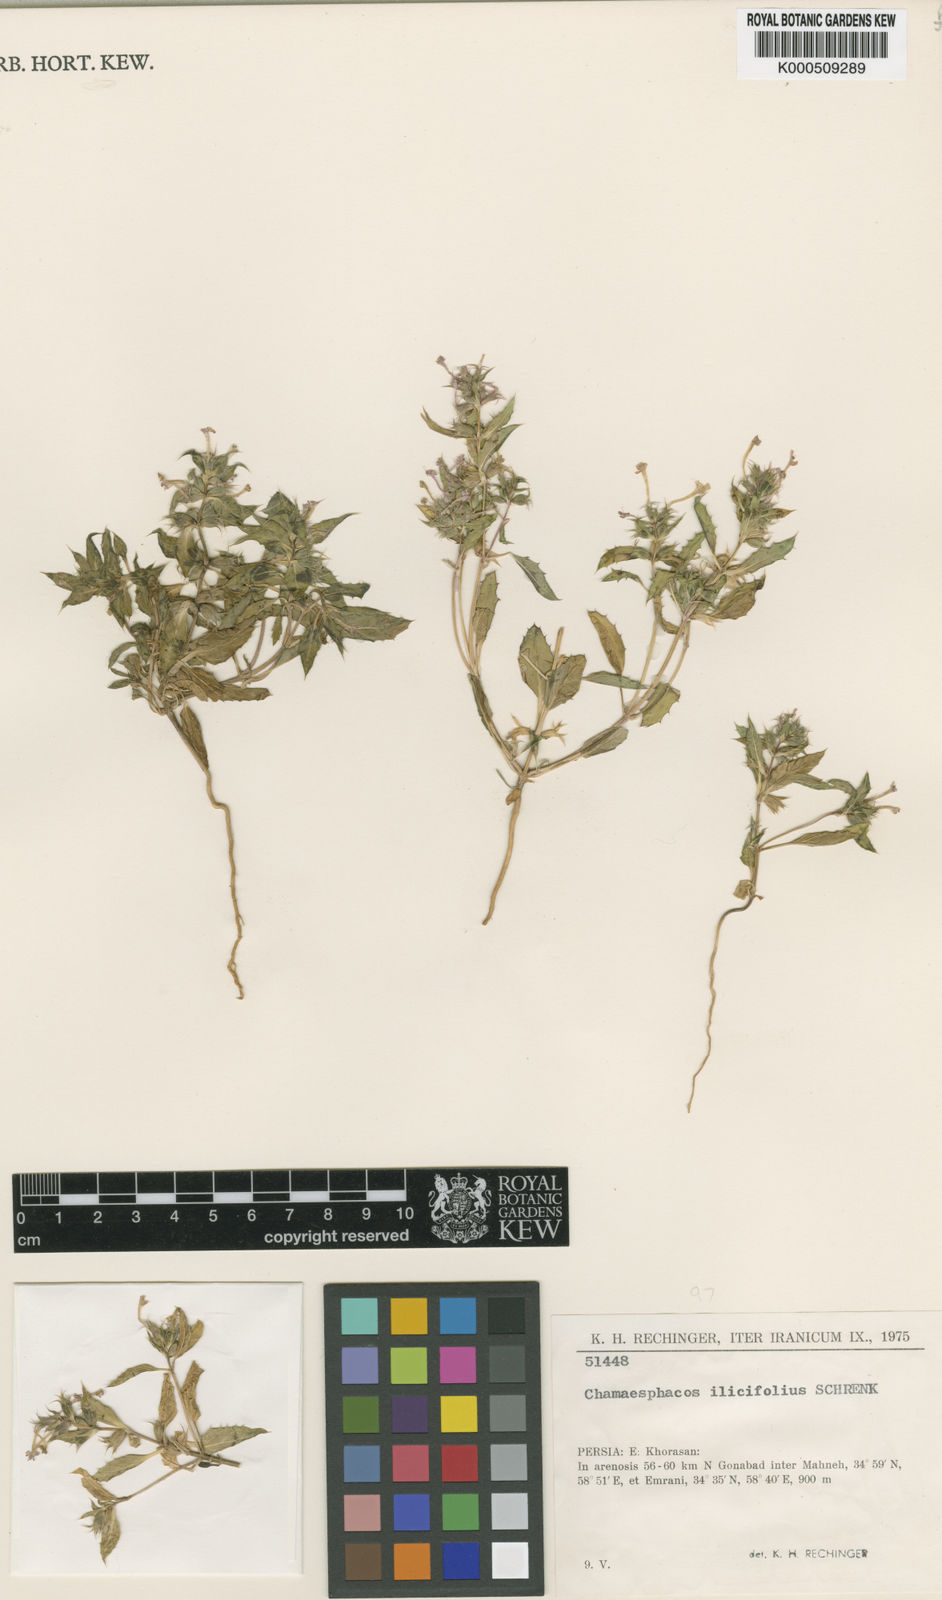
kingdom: Plantae
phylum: Tracheophyta
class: Magnoliopsida
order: Lamiales
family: Lamiaceae
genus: Chamaesphacos
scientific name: Chamaesphacos ilicifolius
